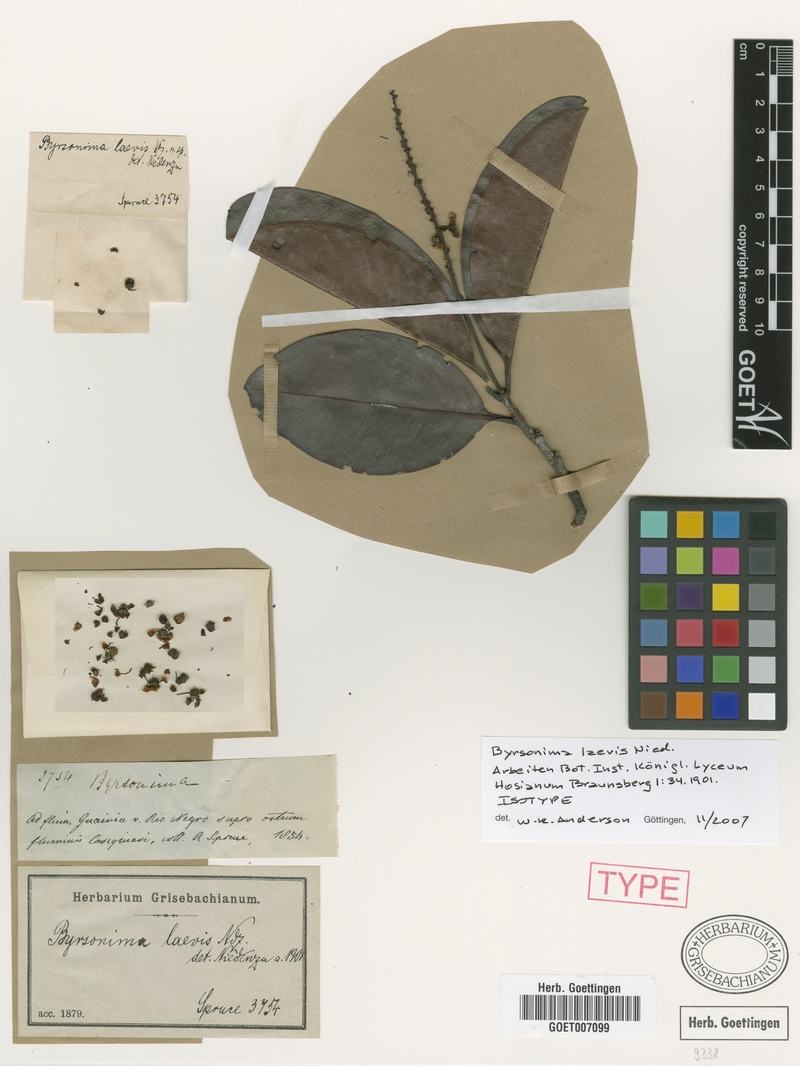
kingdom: Plantae
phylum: Tracheophyta
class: Magnoliopsida
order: Malpighiales
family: Malpighiaceae
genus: Byrsonima
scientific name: Byrsonima laevis
